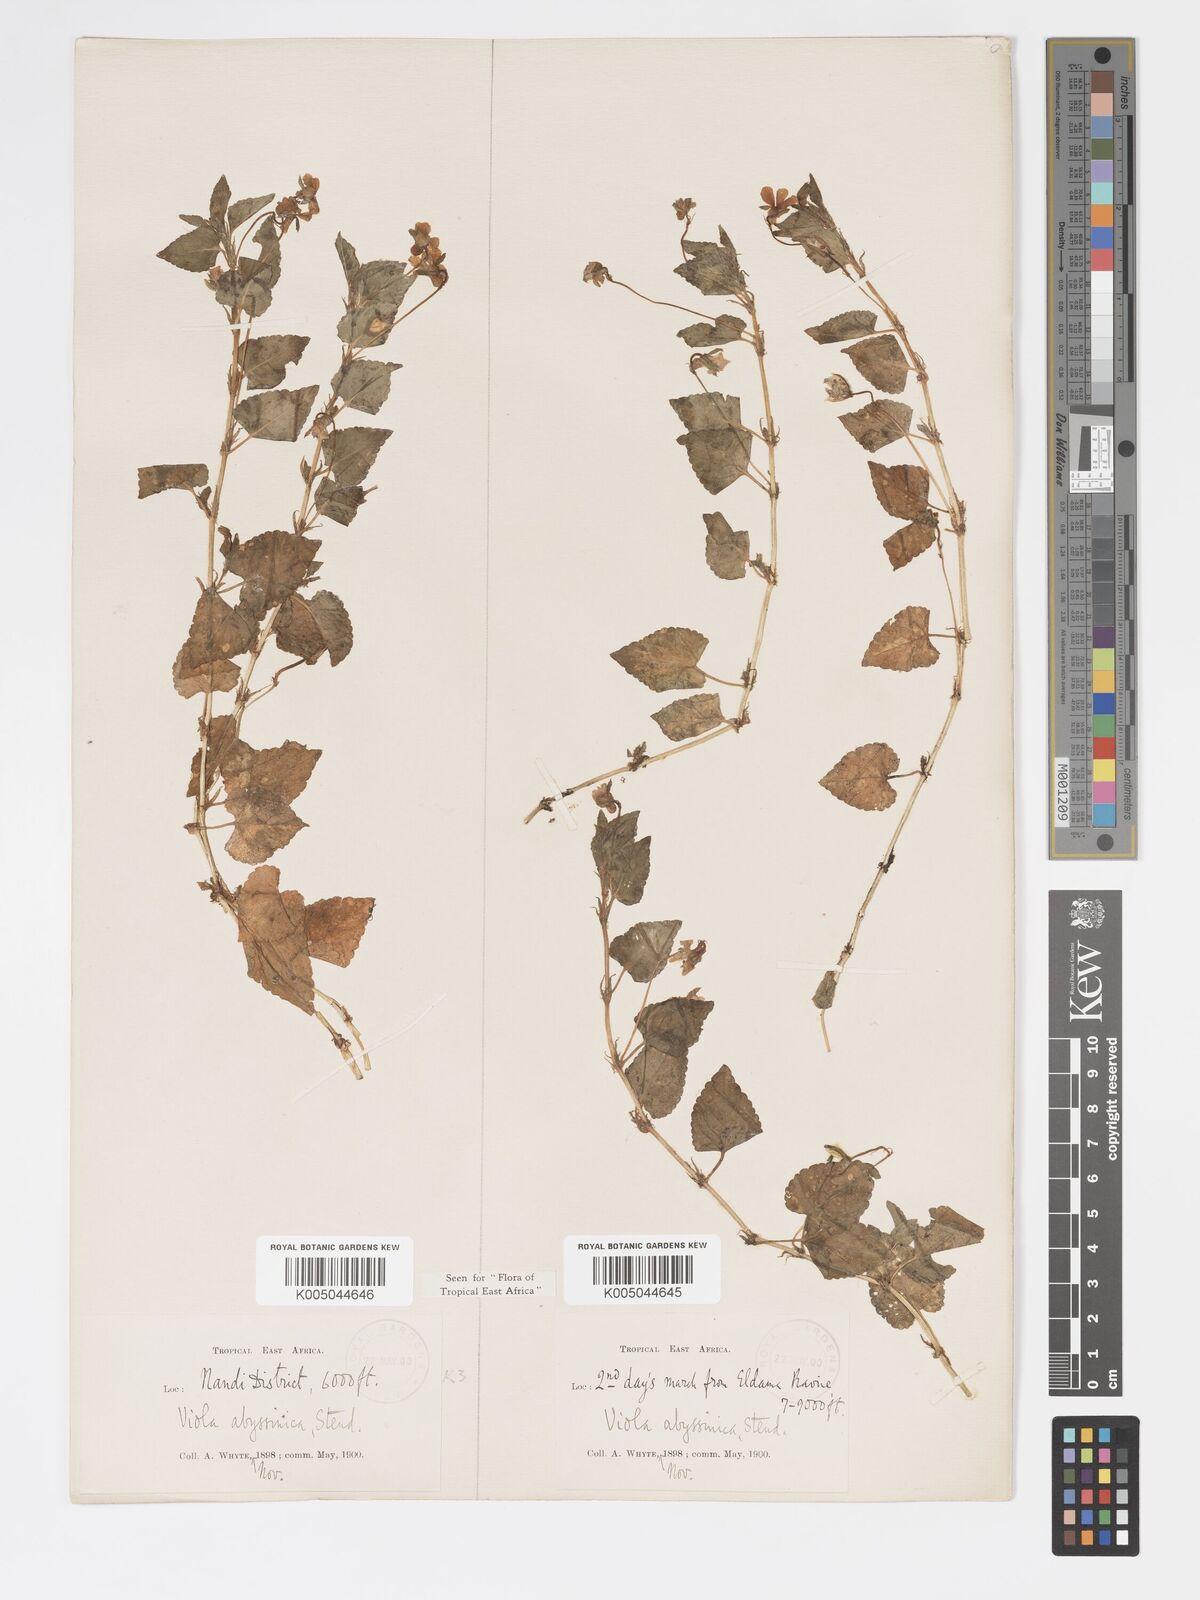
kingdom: Plantae
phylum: Tracheophyta
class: Magnoliopsida
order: Malpighiales
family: Violaceae
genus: Viola
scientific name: Viola abyssinica
